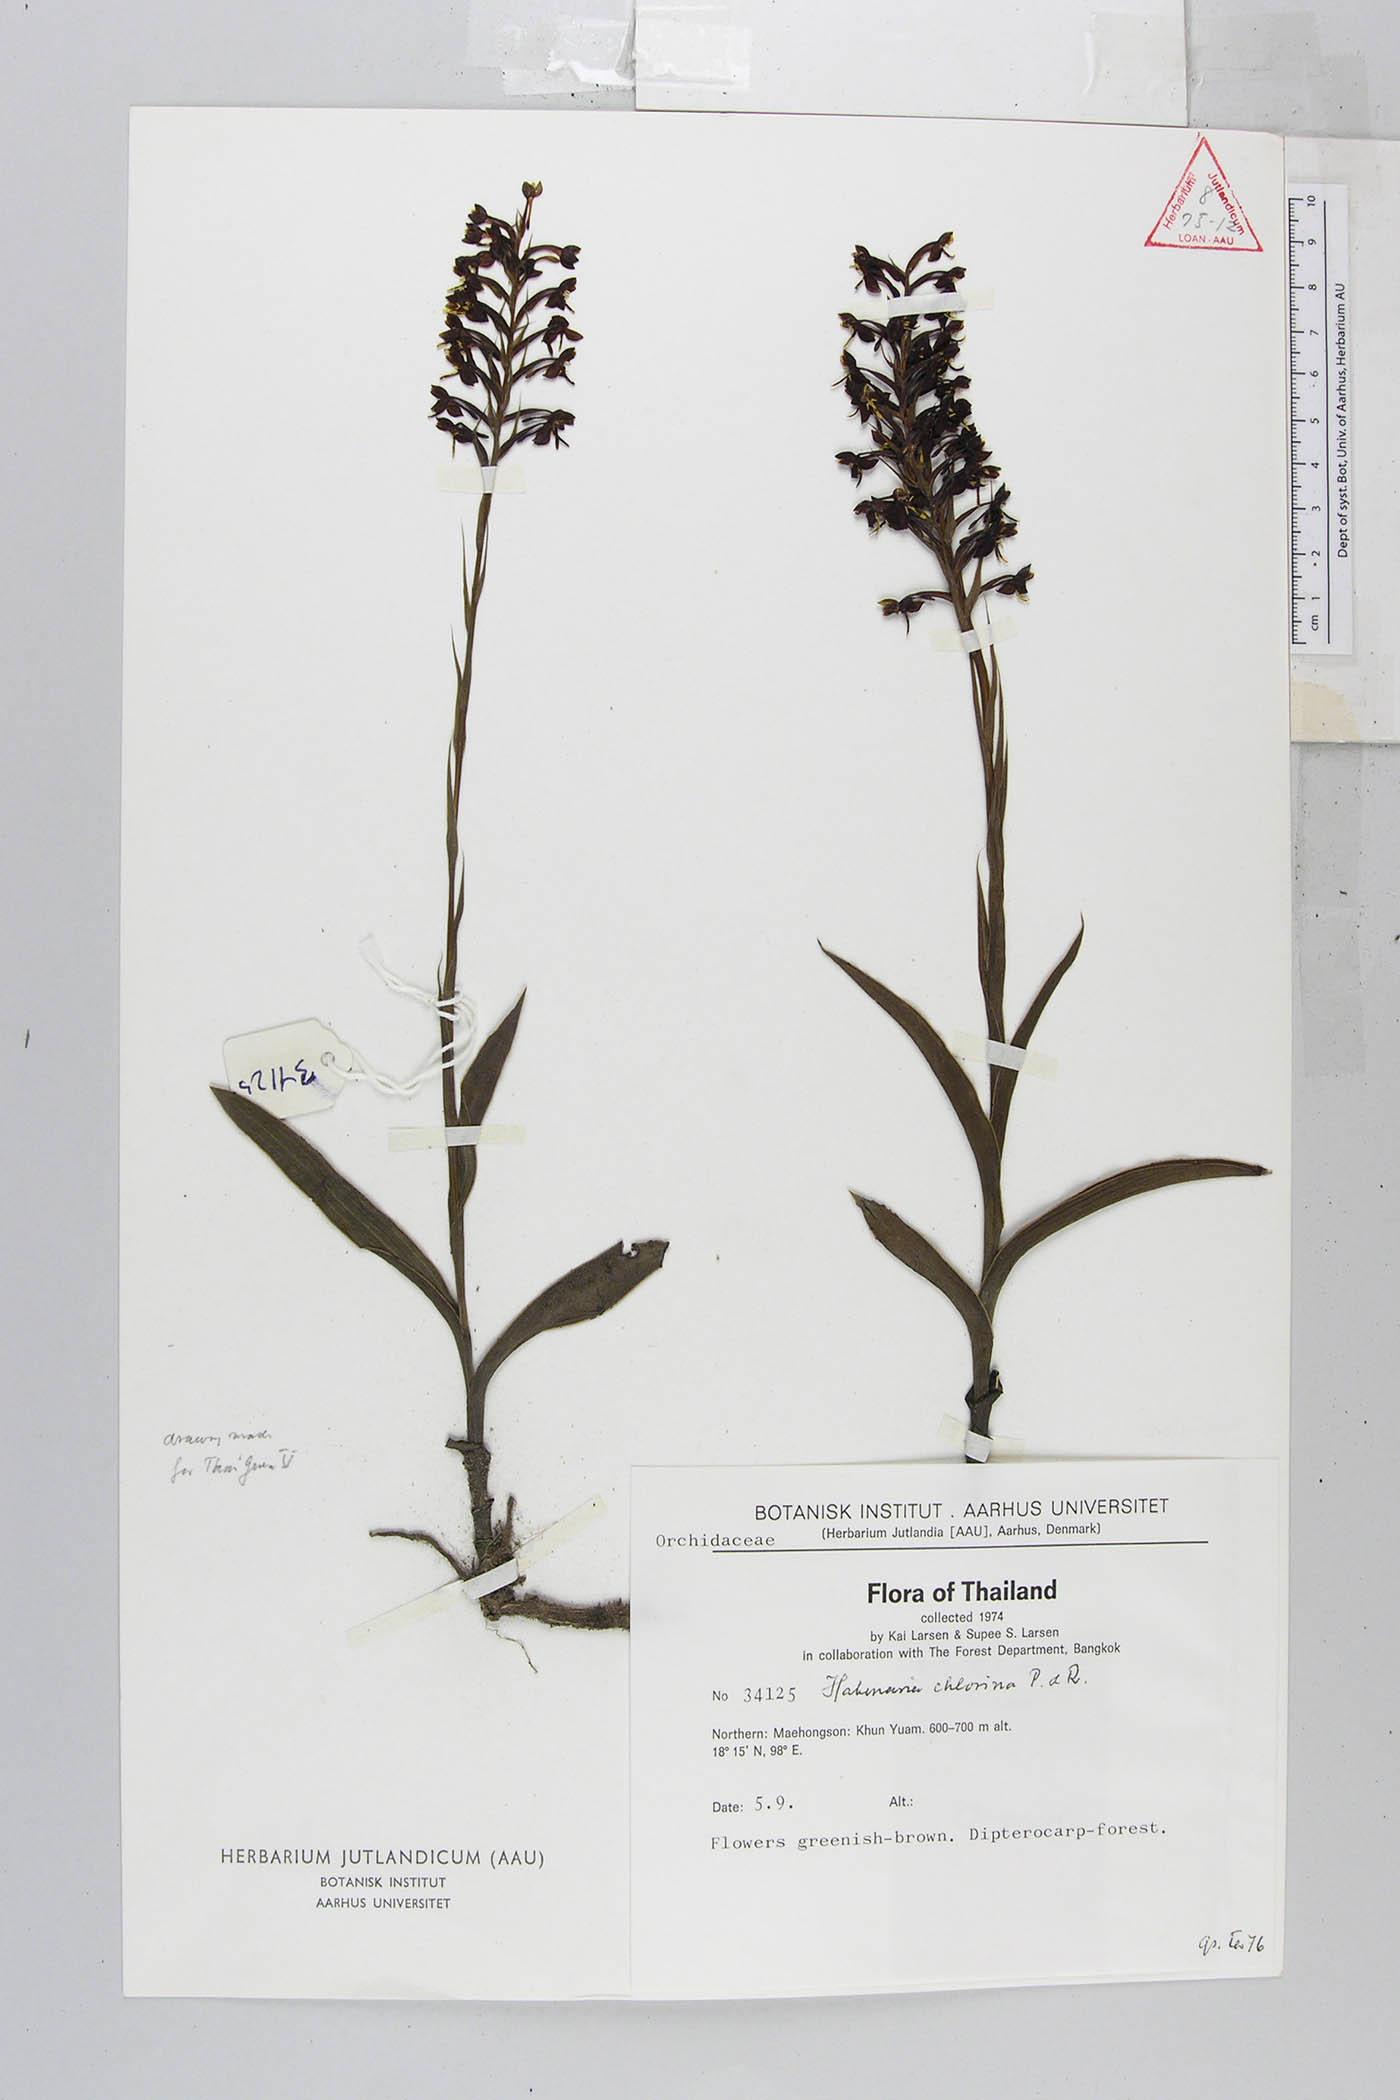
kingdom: Plantae
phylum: Tracheophyta
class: Liliopsida
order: Asparagales
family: Orchidaceae
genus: Habenaria
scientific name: Habenaria chlorina
